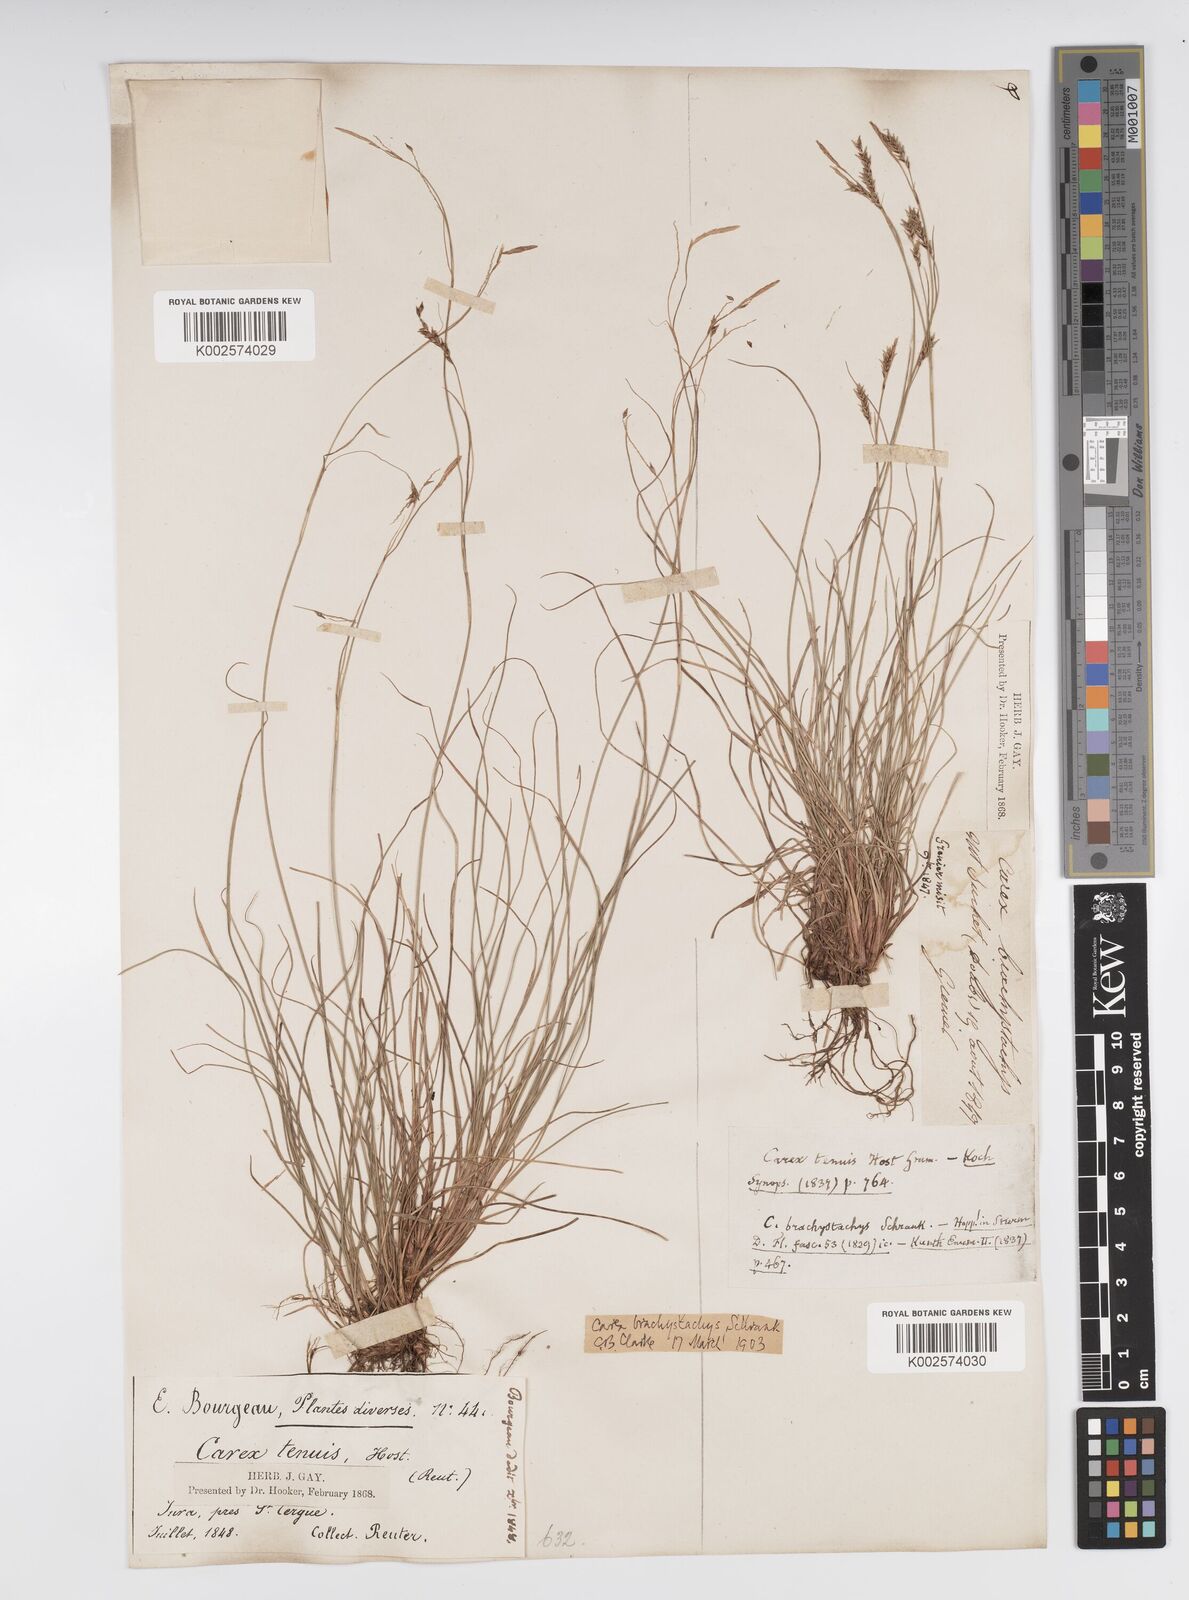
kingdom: Plantae
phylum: Tracheophyta
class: Liliopsida
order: Poales
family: Cyperaceae
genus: Carex
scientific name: Carex brachystachys
